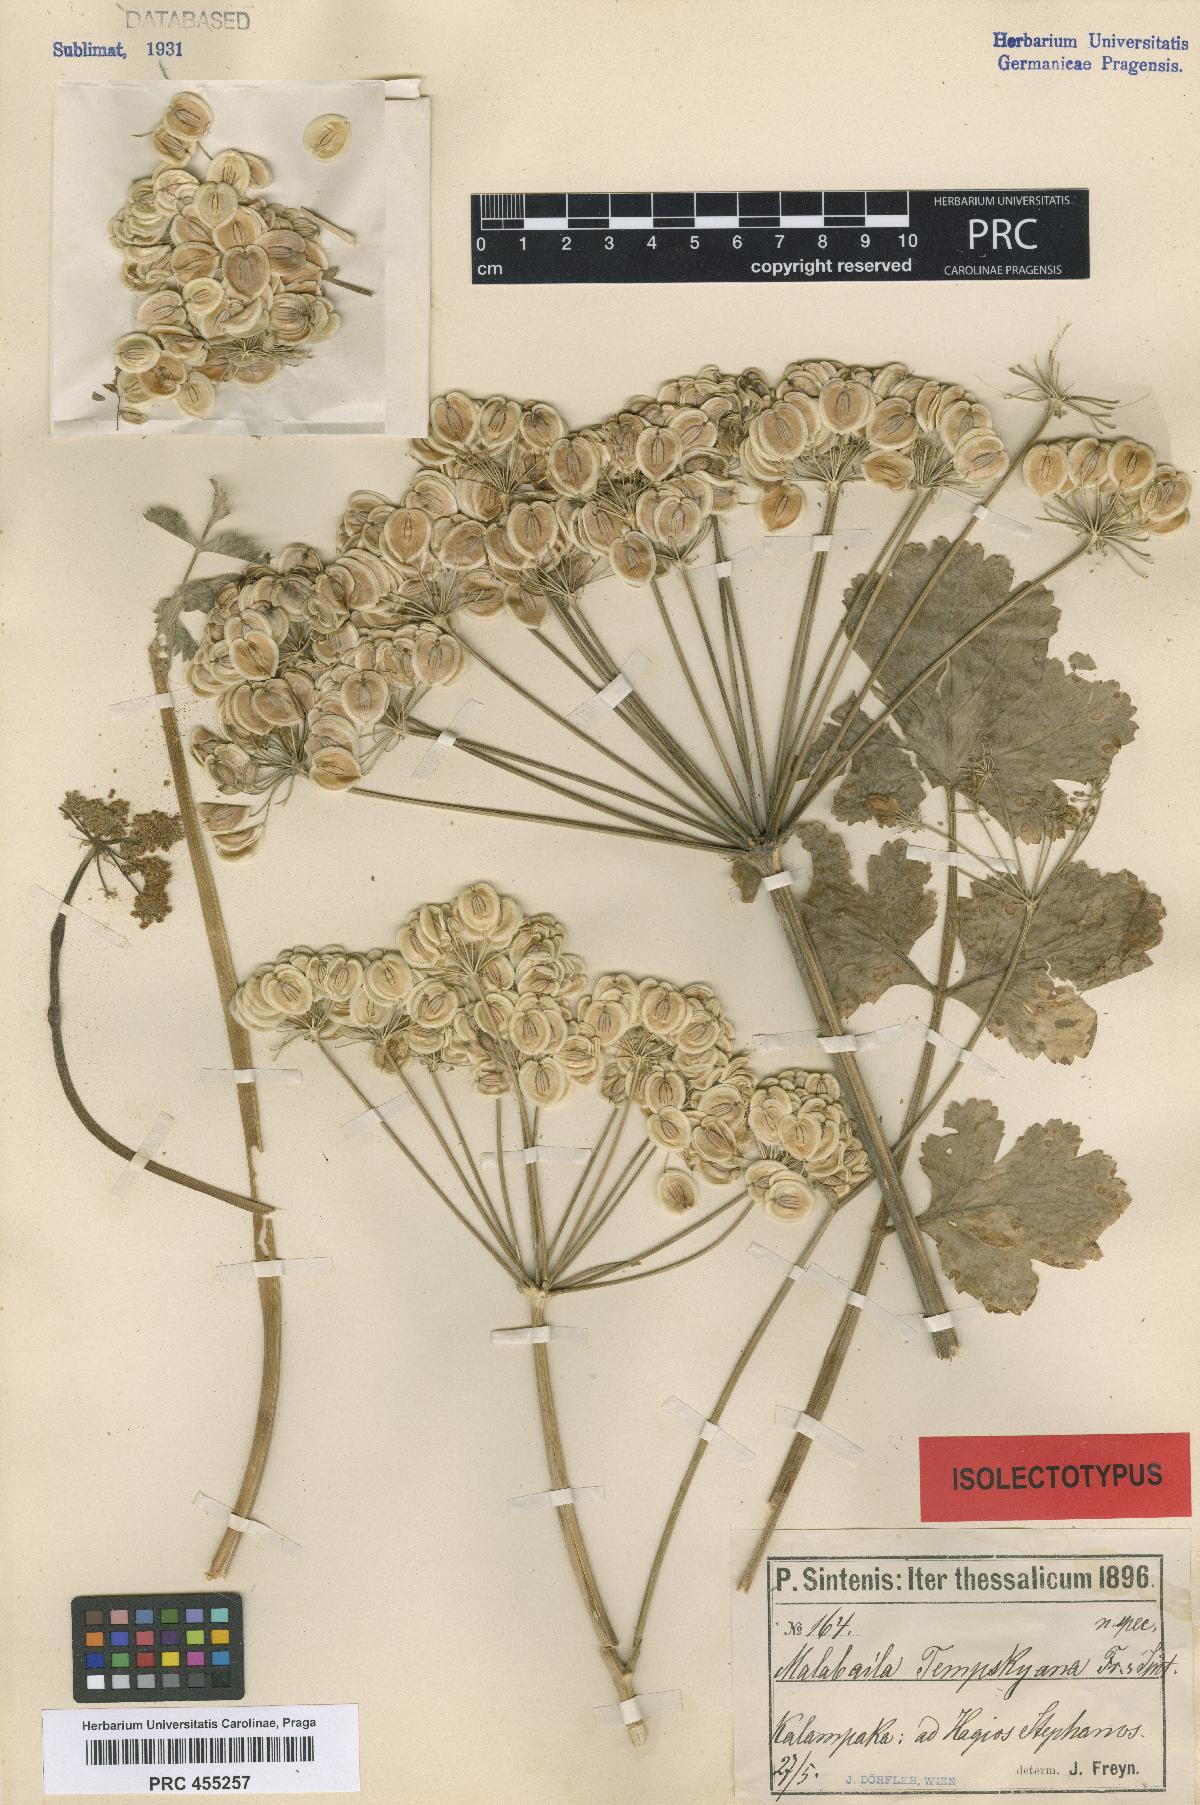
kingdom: Plantae
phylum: Tracheophyta
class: Magnoliopsida
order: Apiales
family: Apiaceae
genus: Leiotulus
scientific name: Leiotulus involucratus
